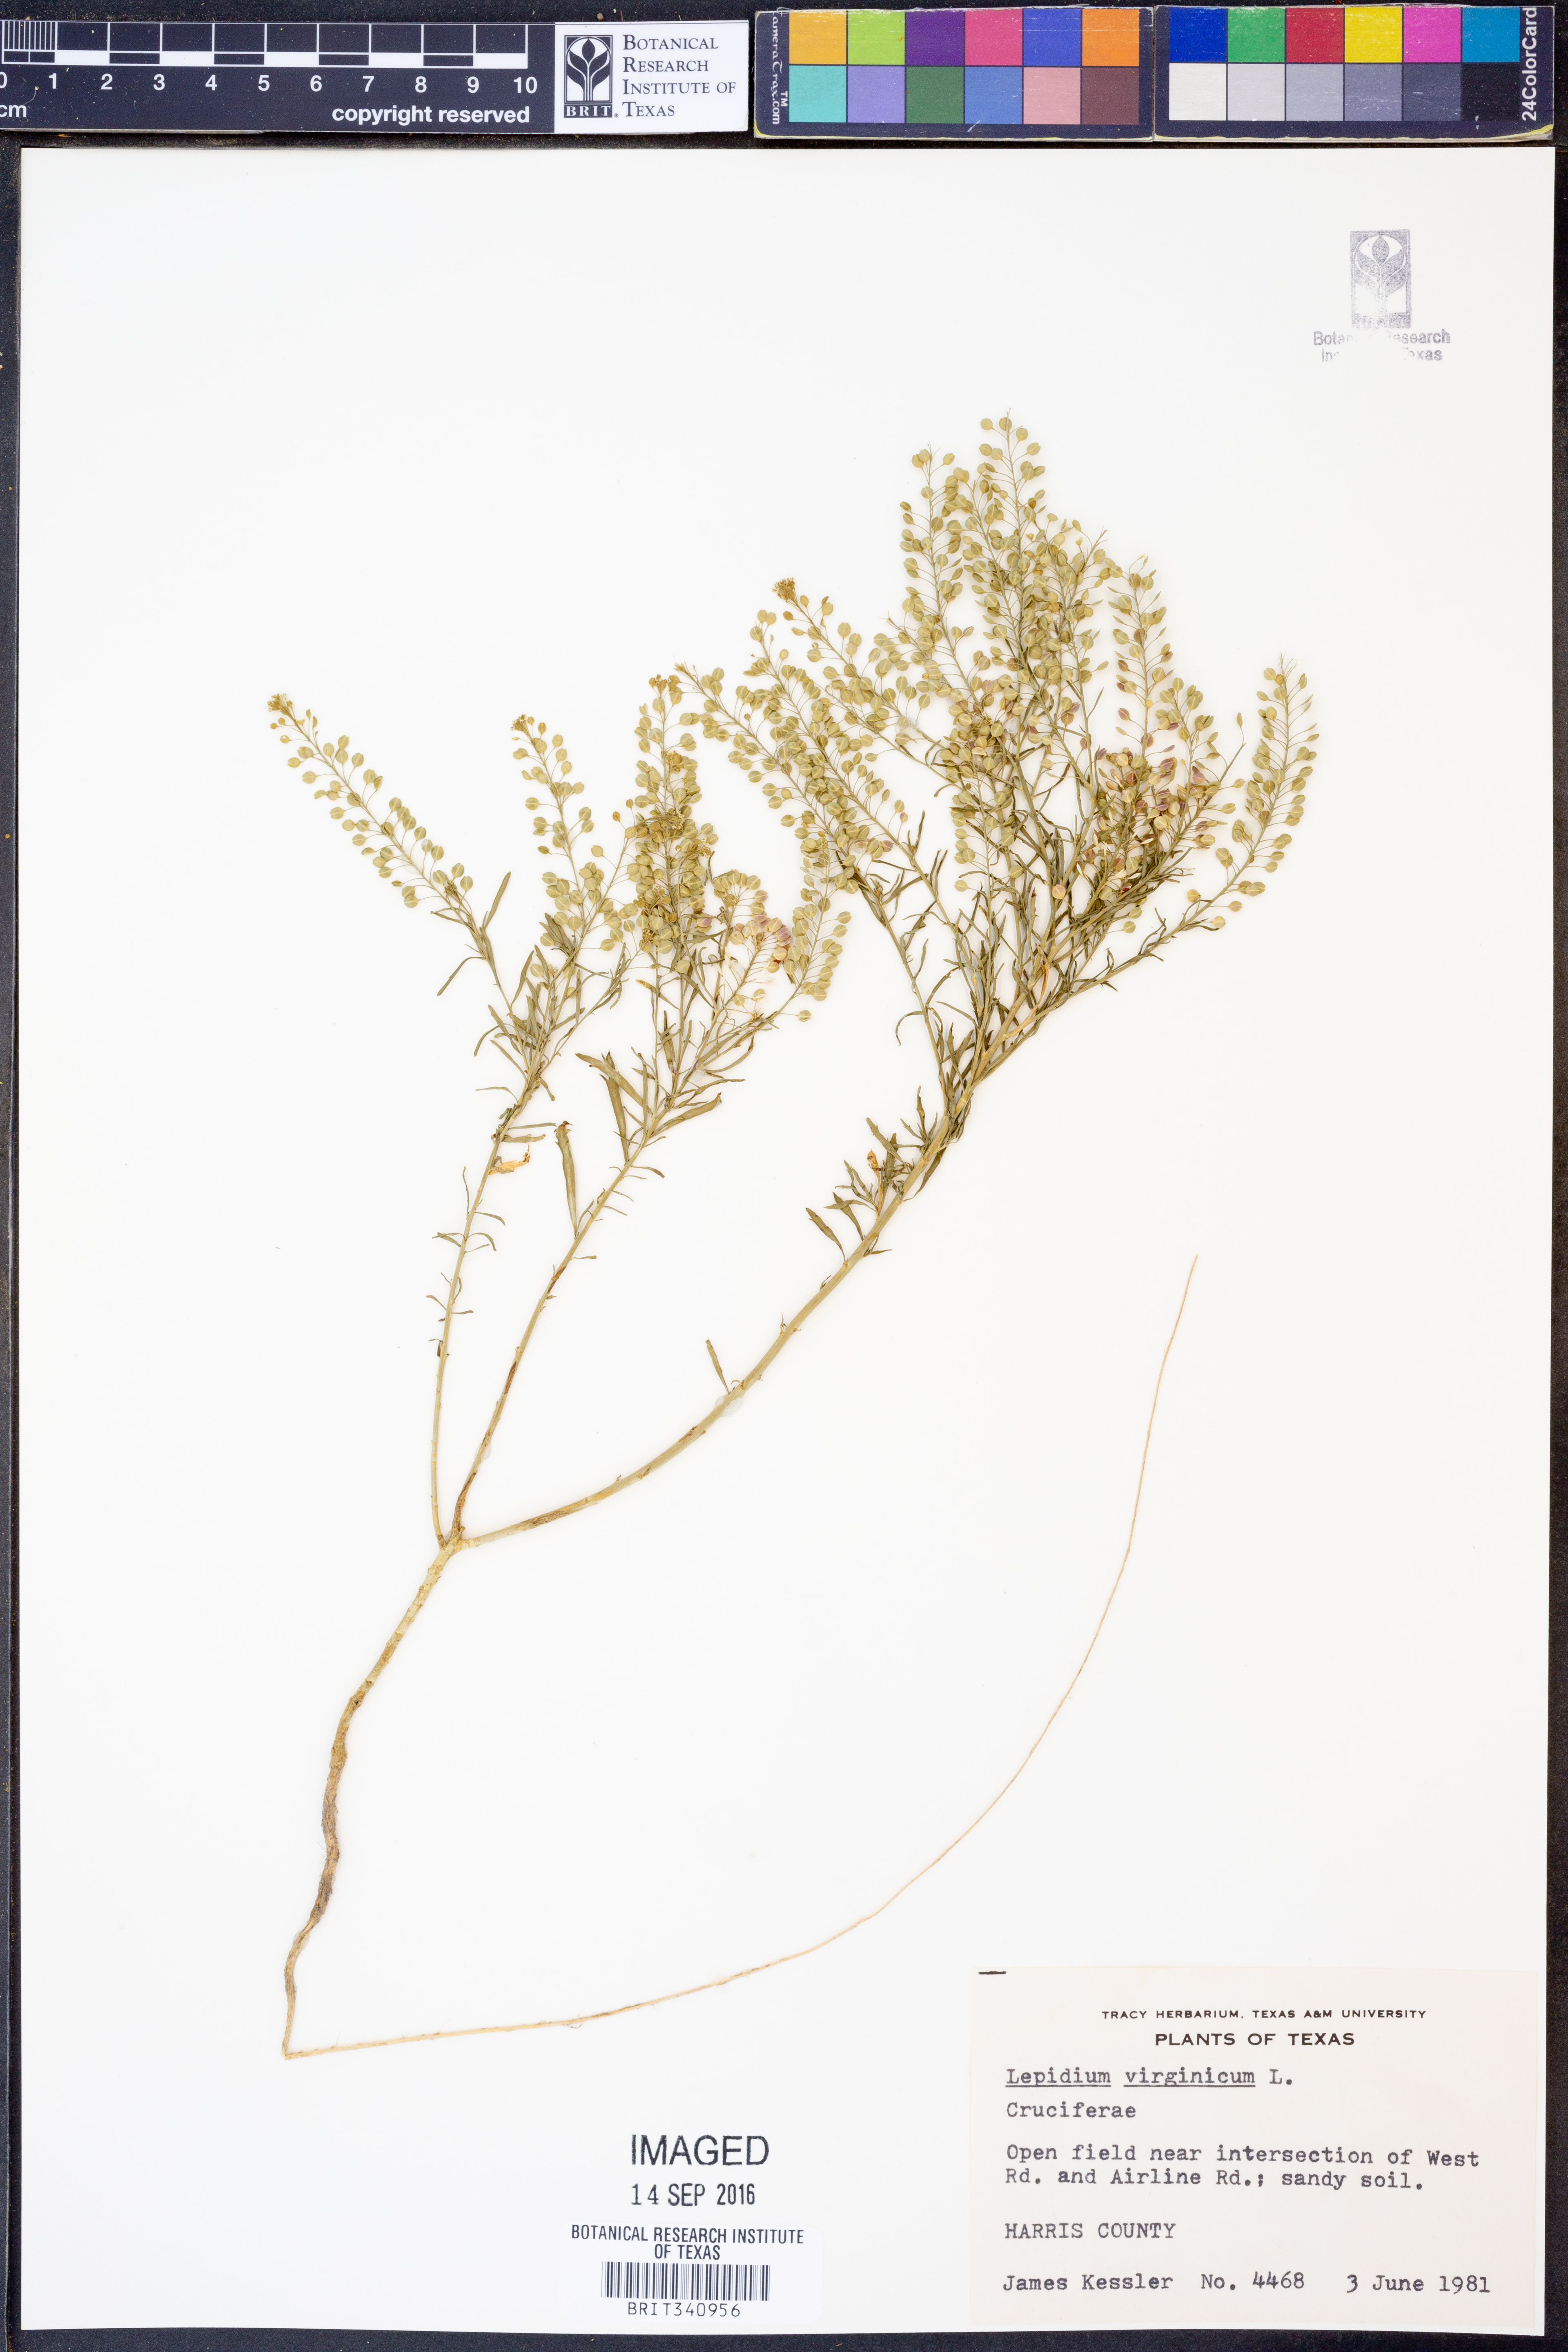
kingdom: Plantae
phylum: Tracheophyta
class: Magnoliopsida
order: Brassicales
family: Brassicaceae
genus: Lepidium
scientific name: Lepidium virginicum
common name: Least pepperwort
